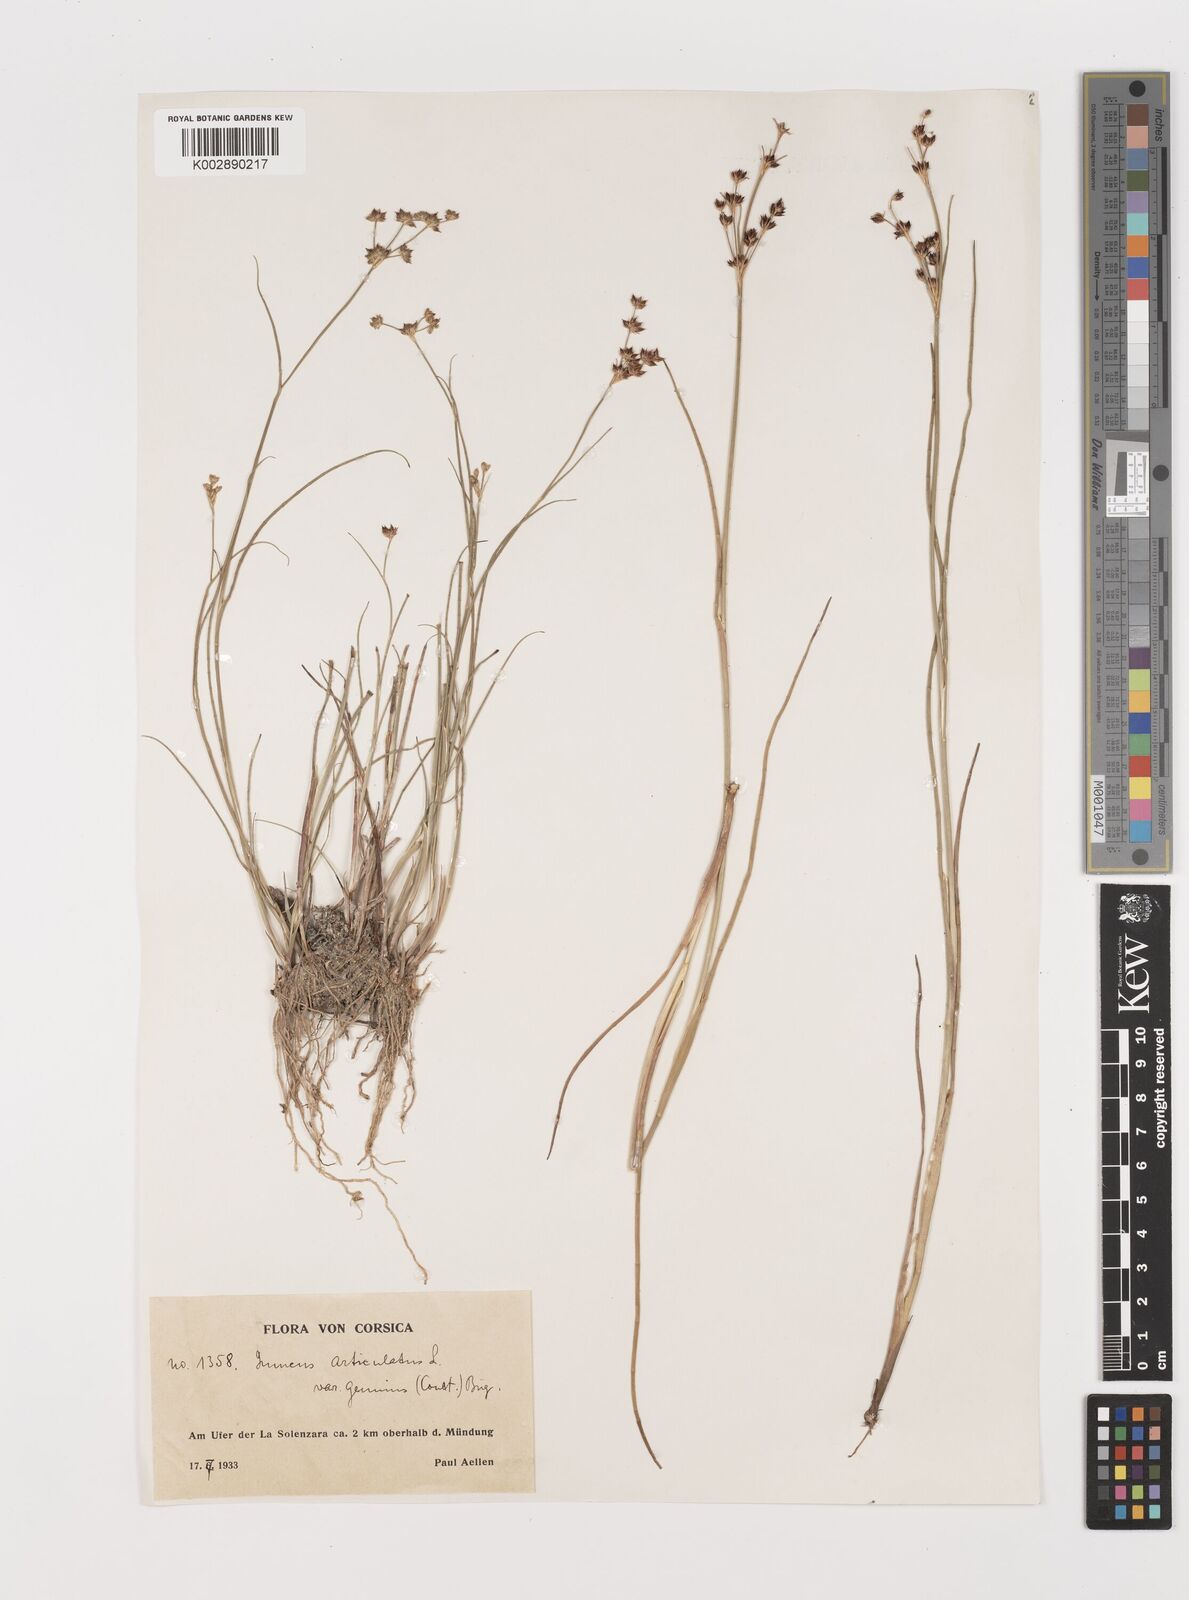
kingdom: Plantae
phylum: Tracheophyta
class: Liliopsida
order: Poales
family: Juncaceae
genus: Juncus
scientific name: Juncus articulatus
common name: Jointed rush
